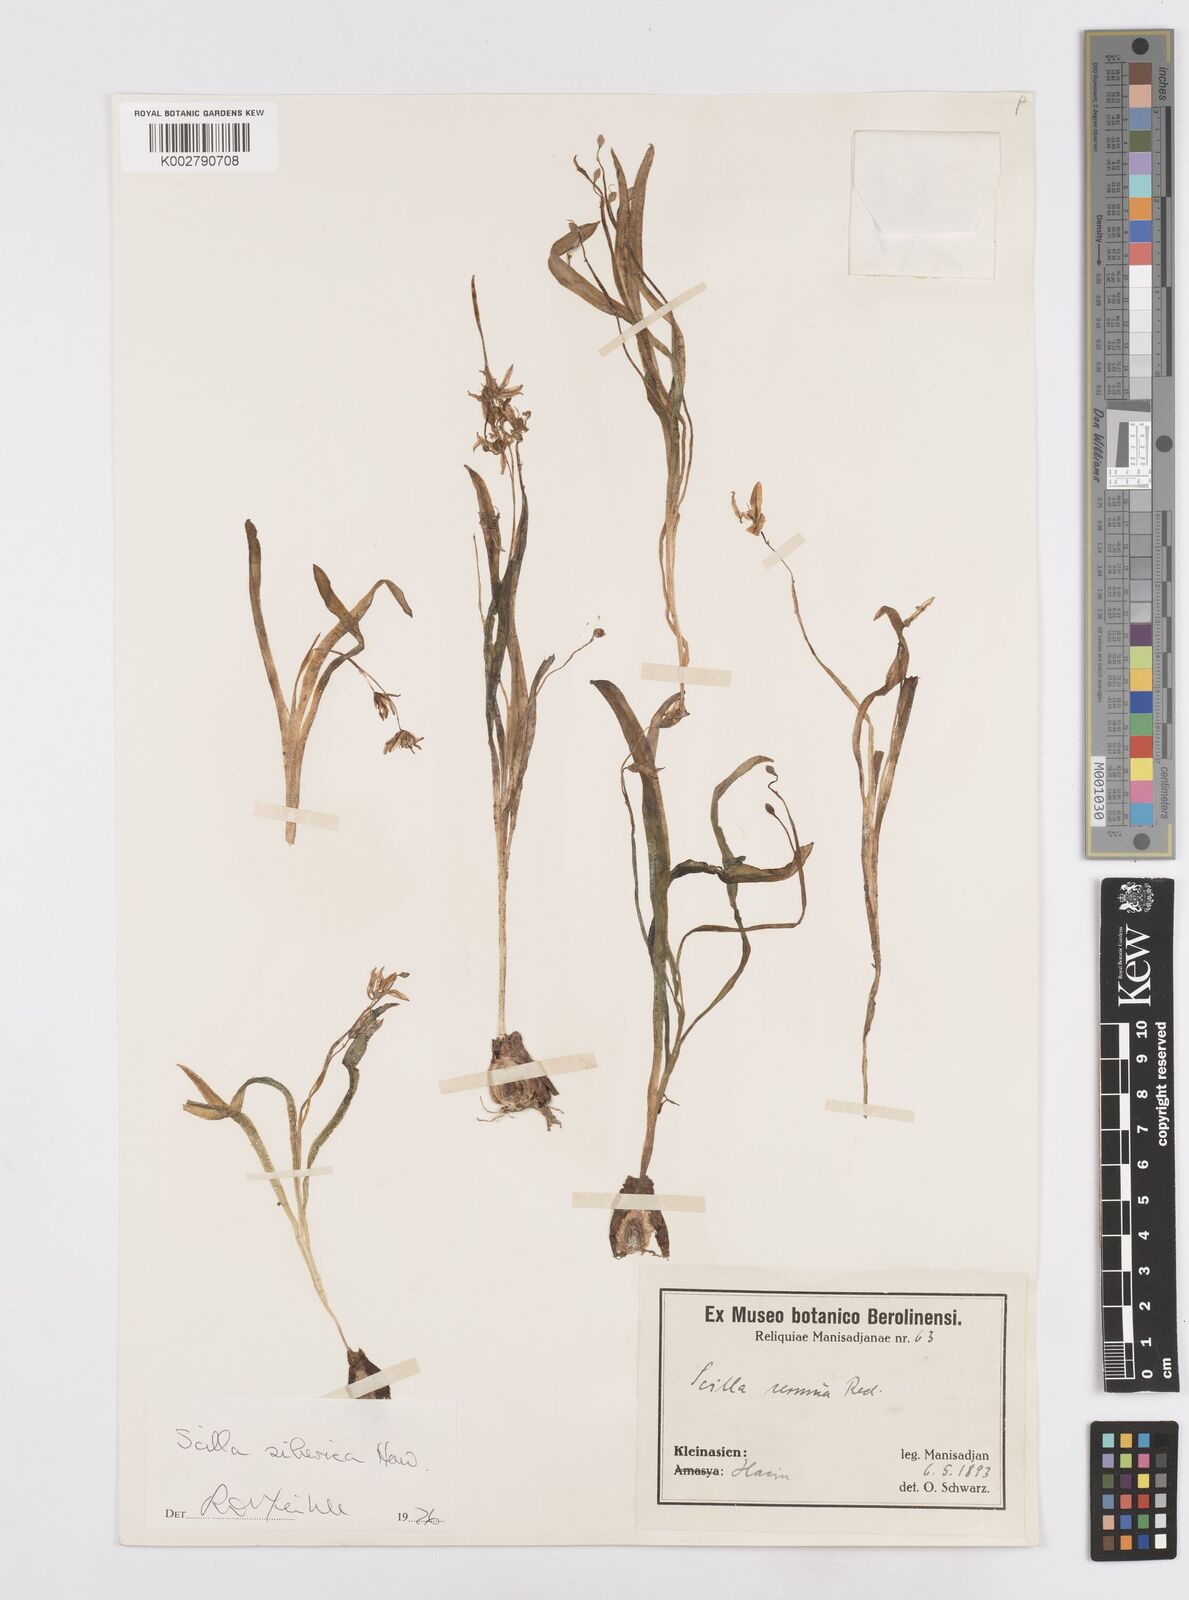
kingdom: Plantae
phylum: Tracheophyta
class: Liliopsida
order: Asparagales
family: Asparagaceae
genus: Scilla
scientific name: Scilla siberica
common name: Siberian squill
